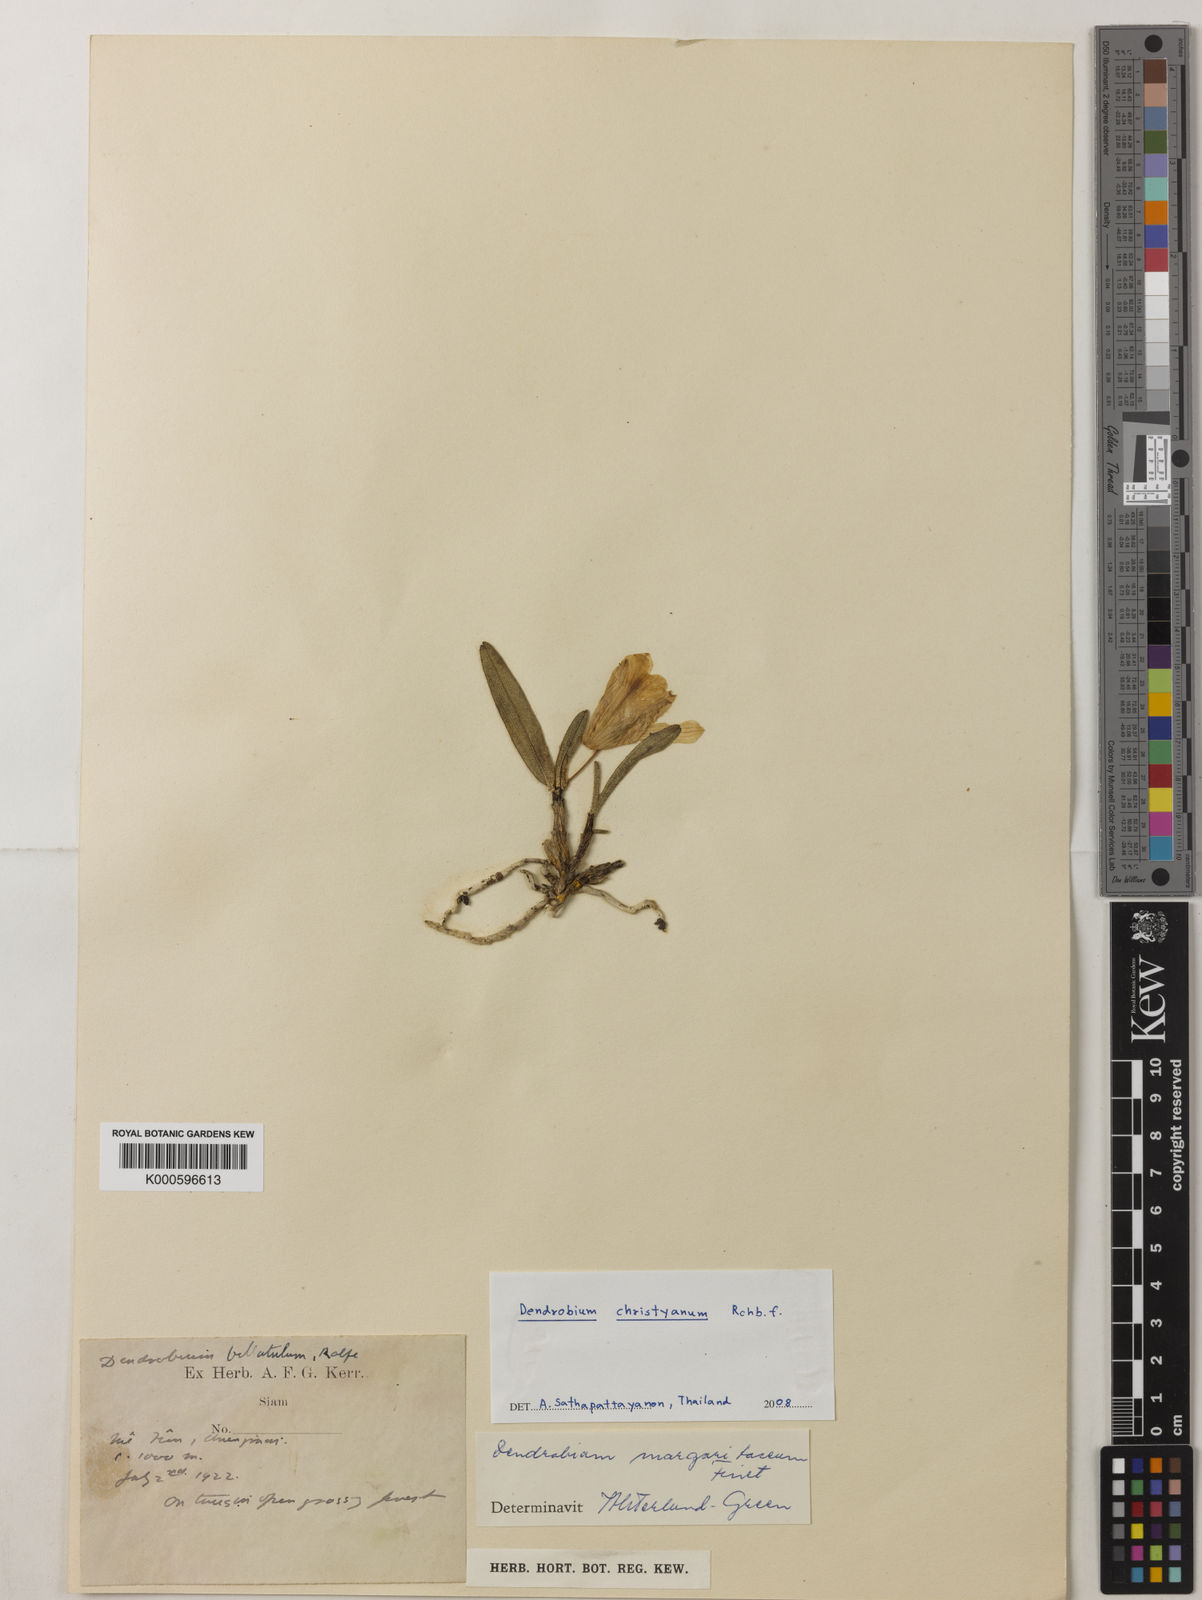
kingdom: Plantae
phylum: Tracheophyta
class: Liliopsida
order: Asparagales
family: Orchidaceae
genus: Dendrobium
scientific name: Dendrobium christyanum
